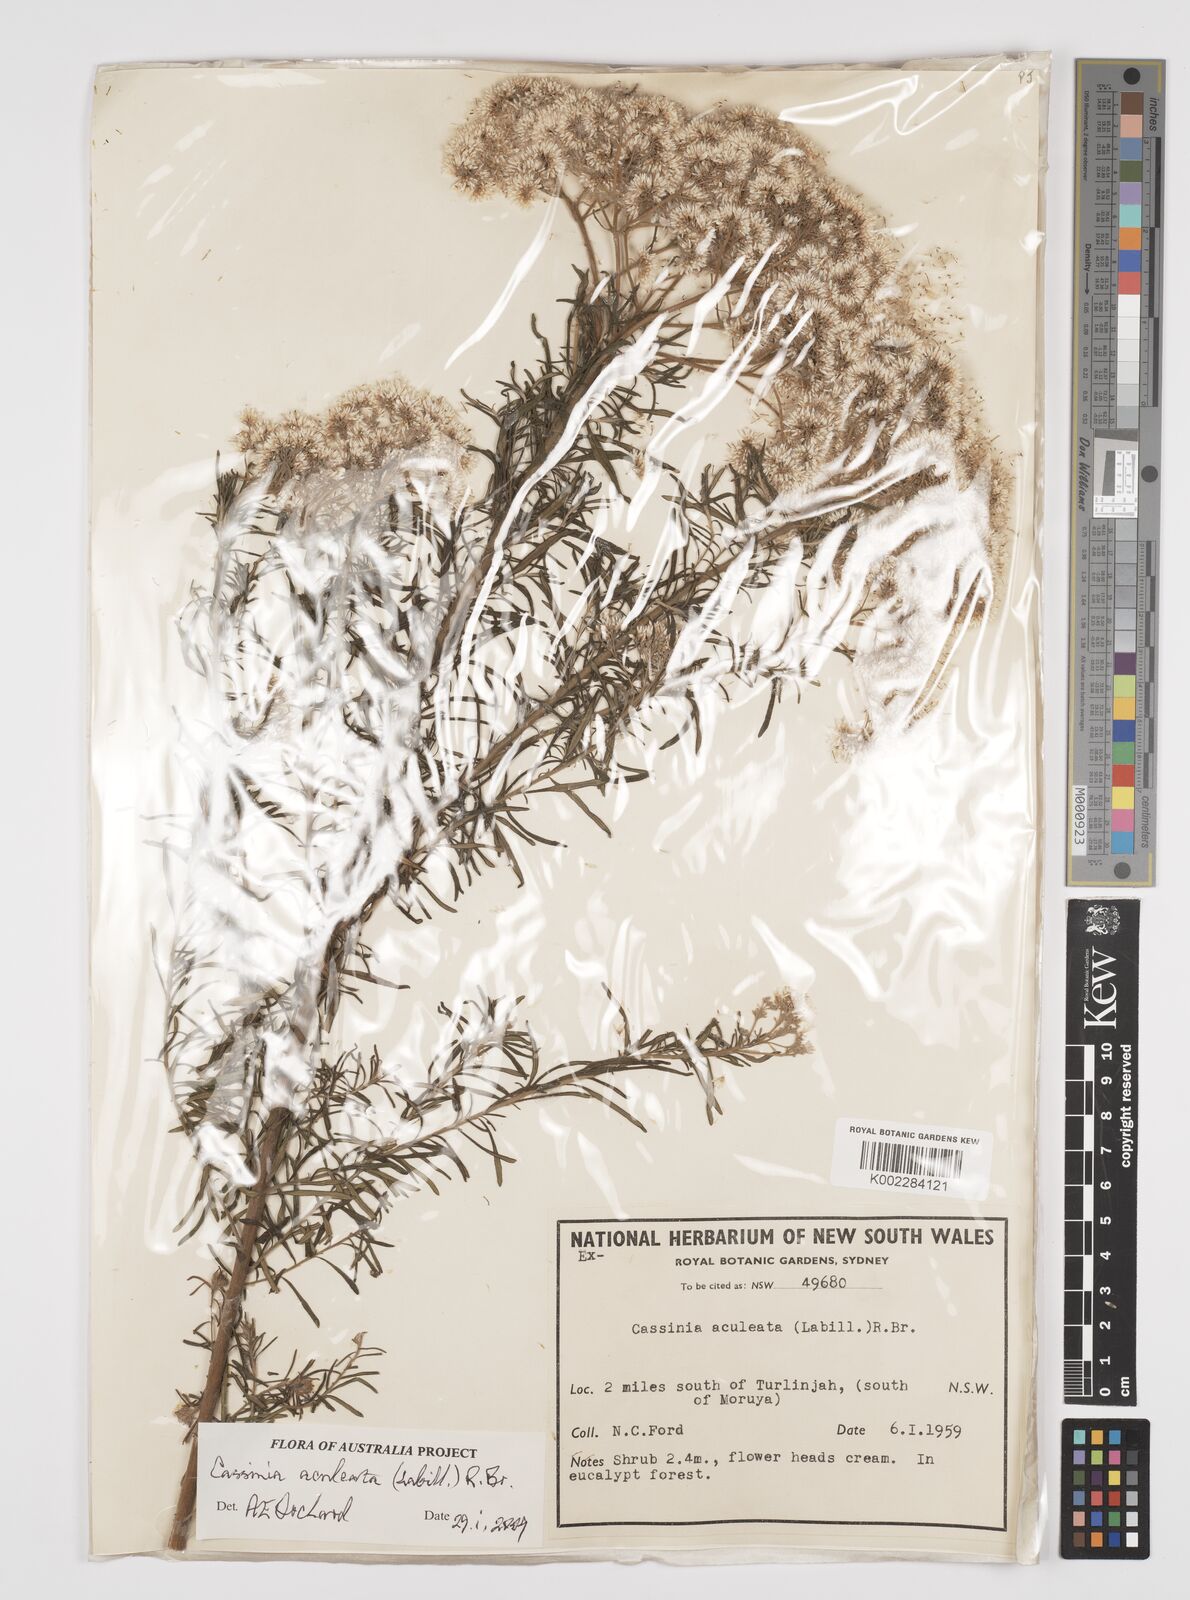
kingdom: Plantae
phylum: Tracheophyta
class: Magnoliopsida
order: Asterales
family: Asteraceae
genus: Cassinia
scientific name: Cassinia aculeata
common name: Australian tauhinu
